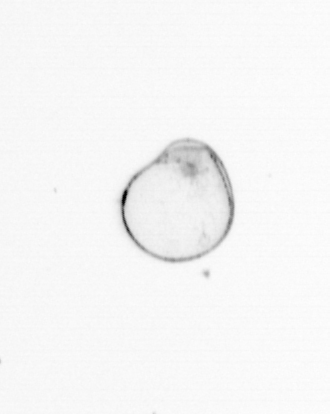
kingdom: Chromista
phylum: Myzozoa
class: Dinophyceae
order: Noctilucales
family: Noctilucaceae
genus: Noctiluca
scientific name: Noctiluca scintillans
